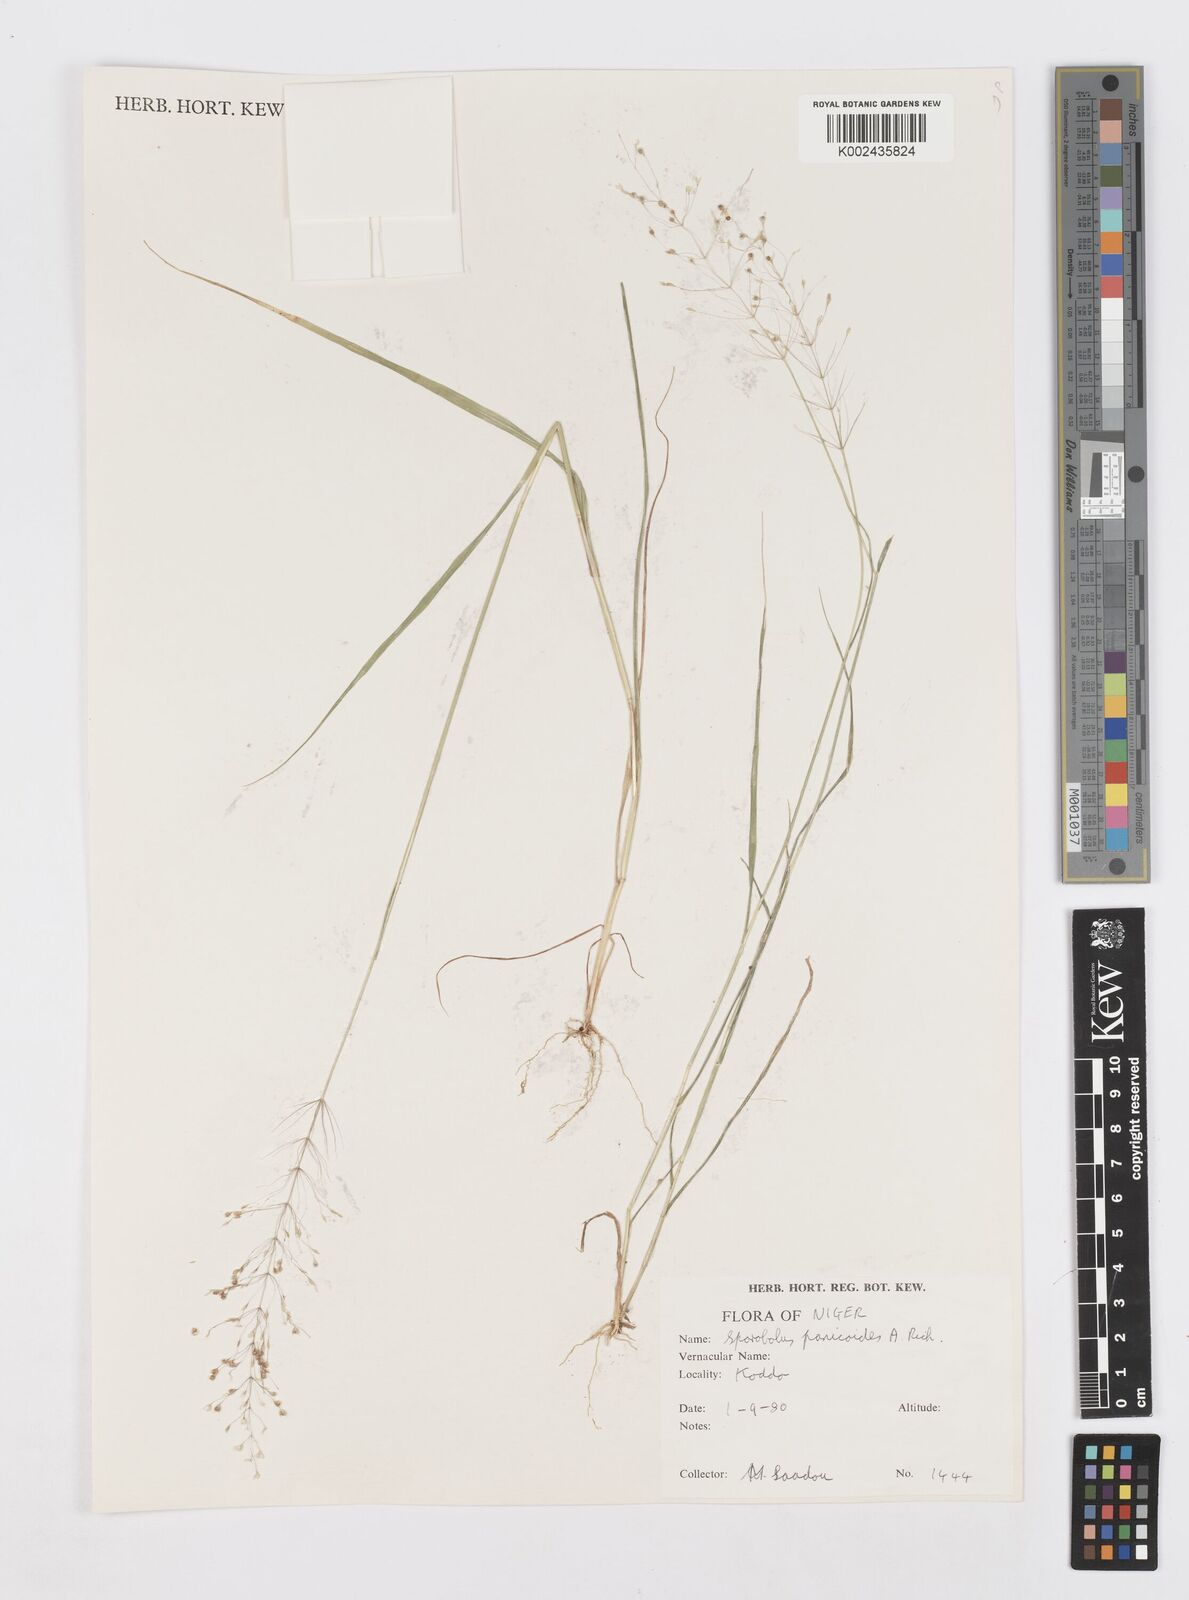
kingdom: Plantae
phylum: Tracheophyta
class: Liliopsida
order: Poales
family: Poaceae
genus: Sporobolus
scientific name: Sporobolus panicoides
